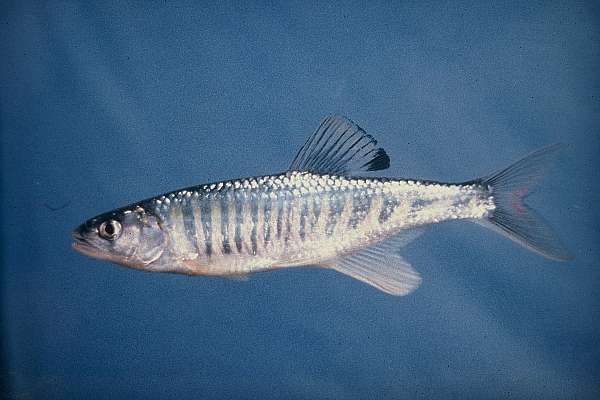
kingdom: Animalia
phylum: Chordata
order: Cypriniformes
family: Cyprinidae
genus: Opsaridium
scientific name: Opsaridium zambezense
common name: Barred minnow
